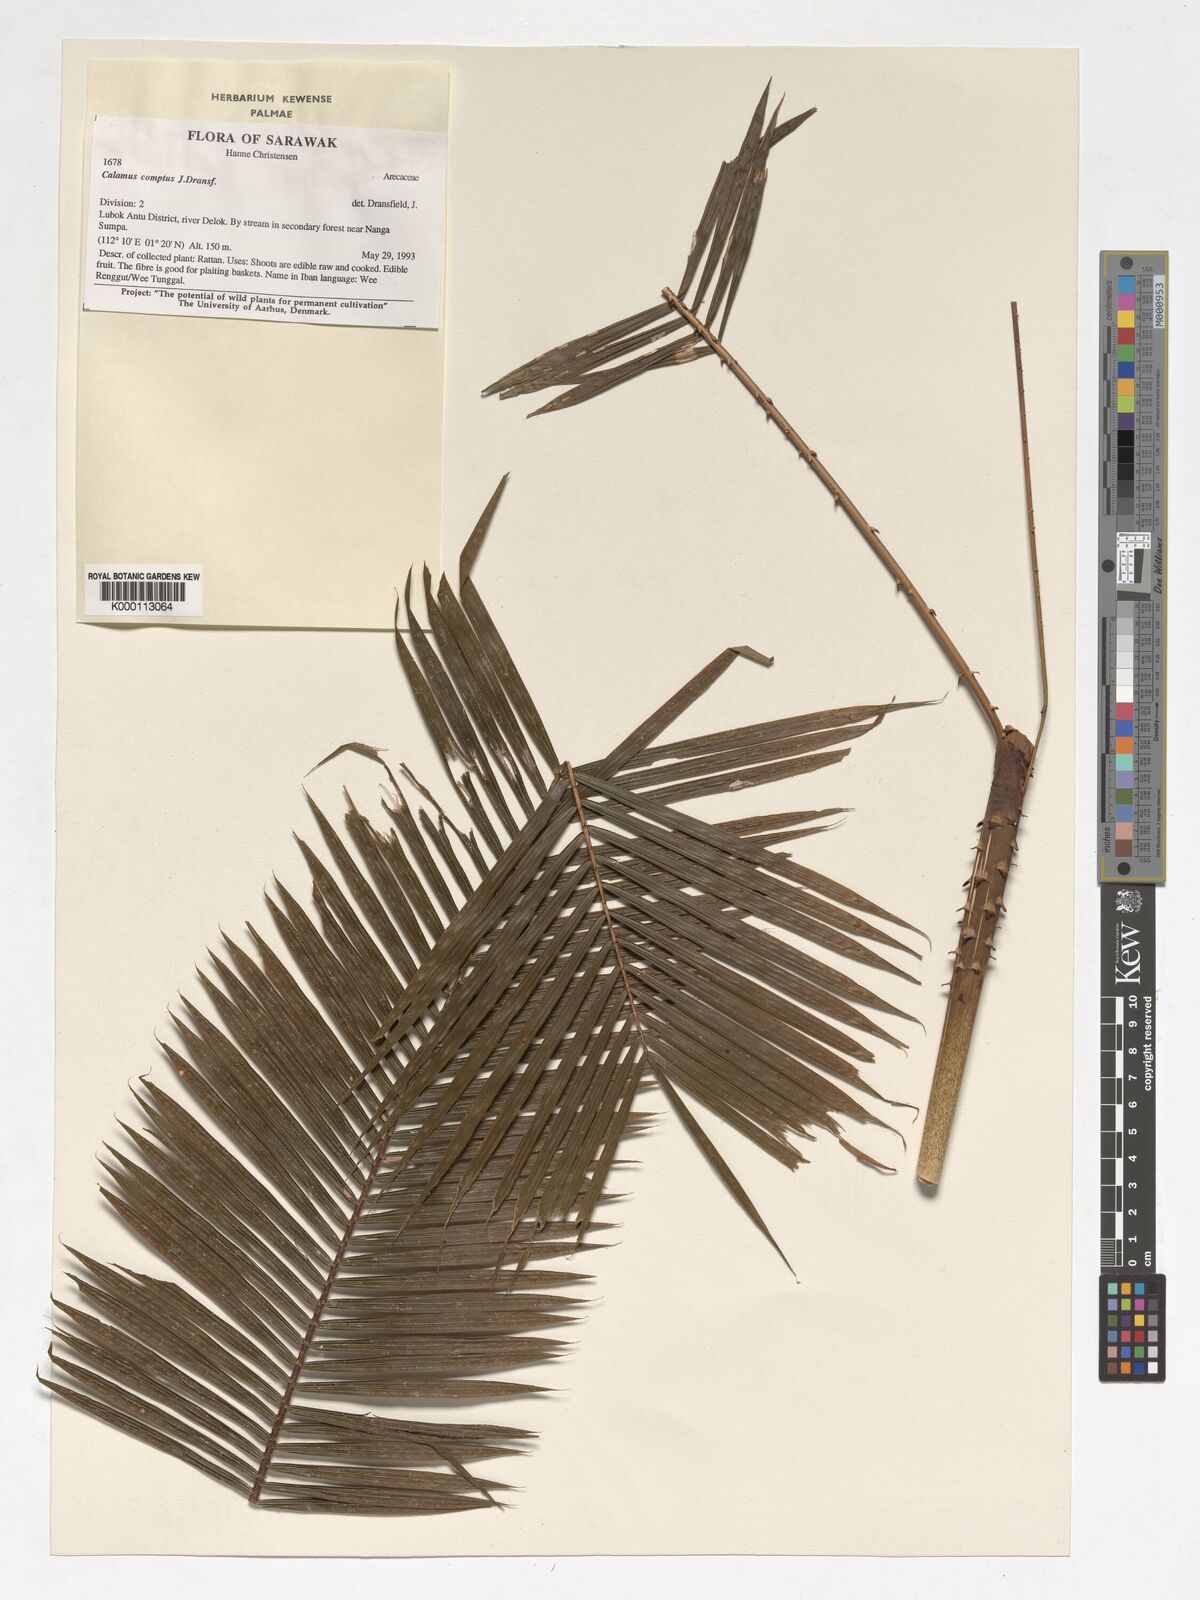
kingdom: Plantae
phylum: Tracheophyta
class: Liliopsida
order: Arecales
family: Arecaceae
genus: Calamus
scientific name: Calamus comptus
